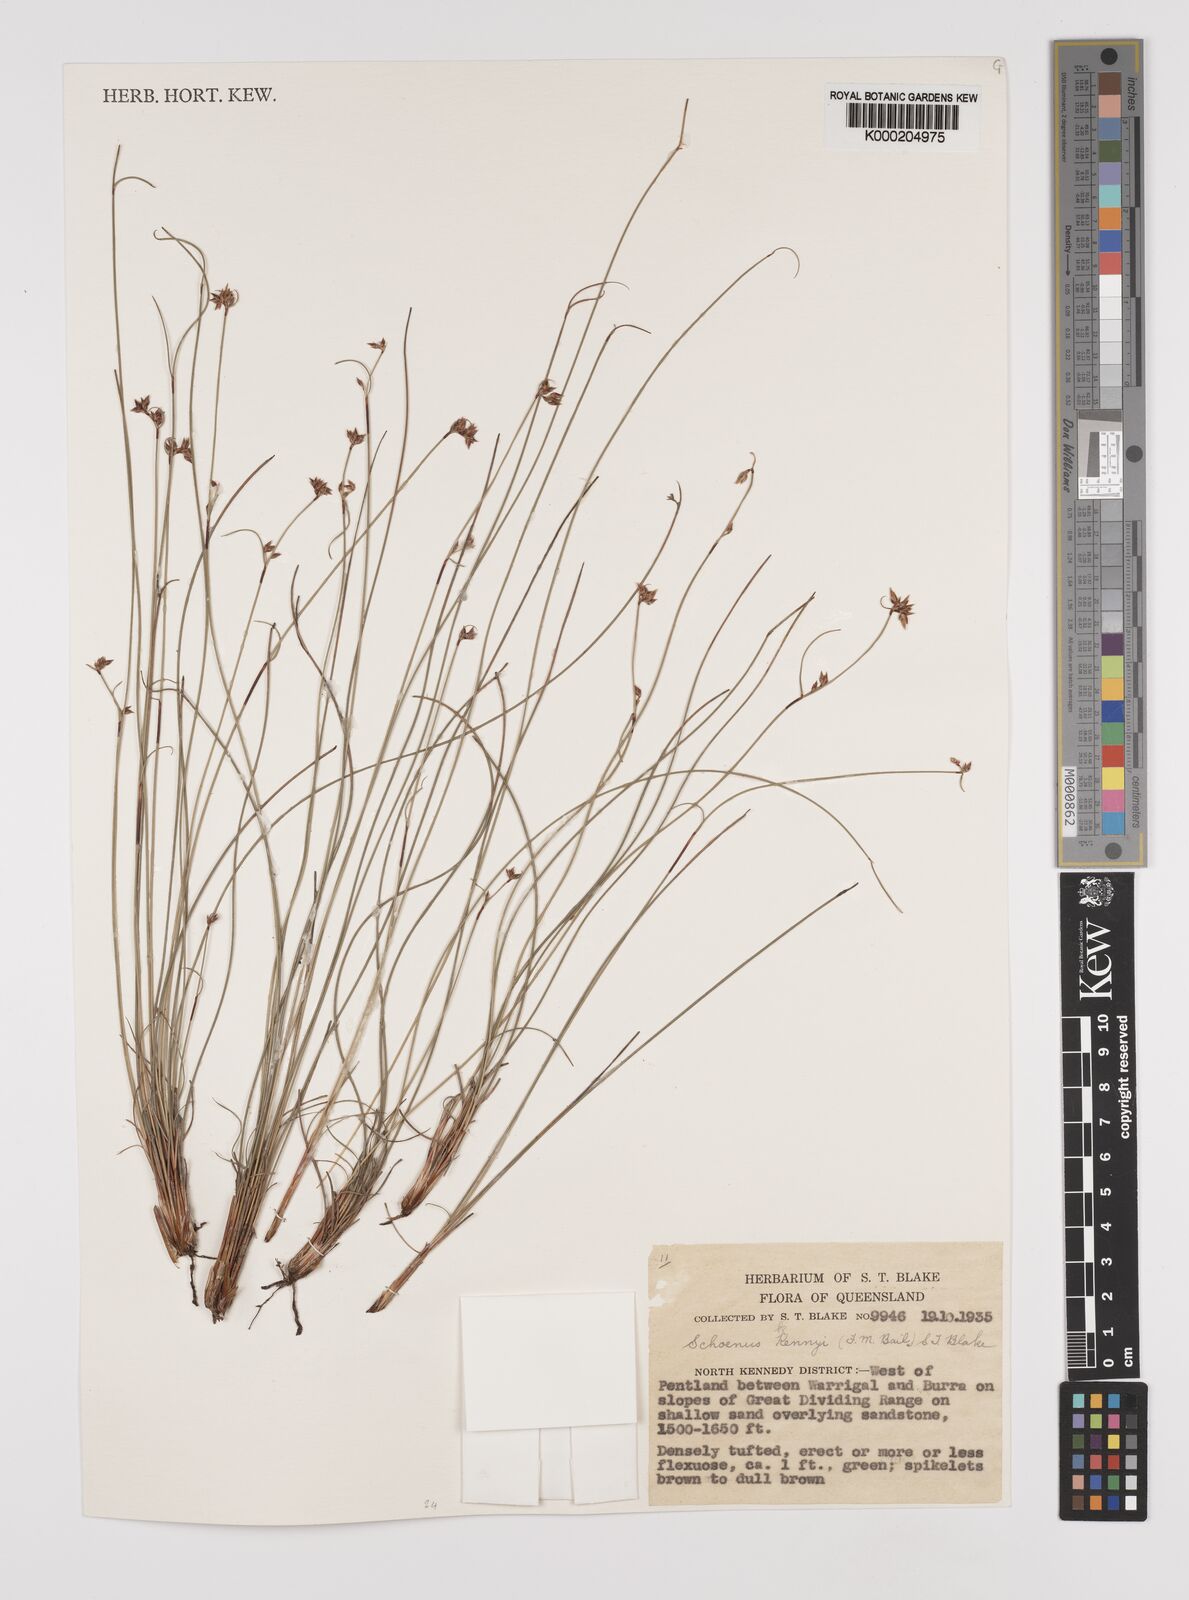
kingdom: Plantae
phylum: Tracheophyta
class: Liliopsida
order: Poales
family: Cyperaceae
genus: Schoenus
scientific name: Schoenus kennyi
